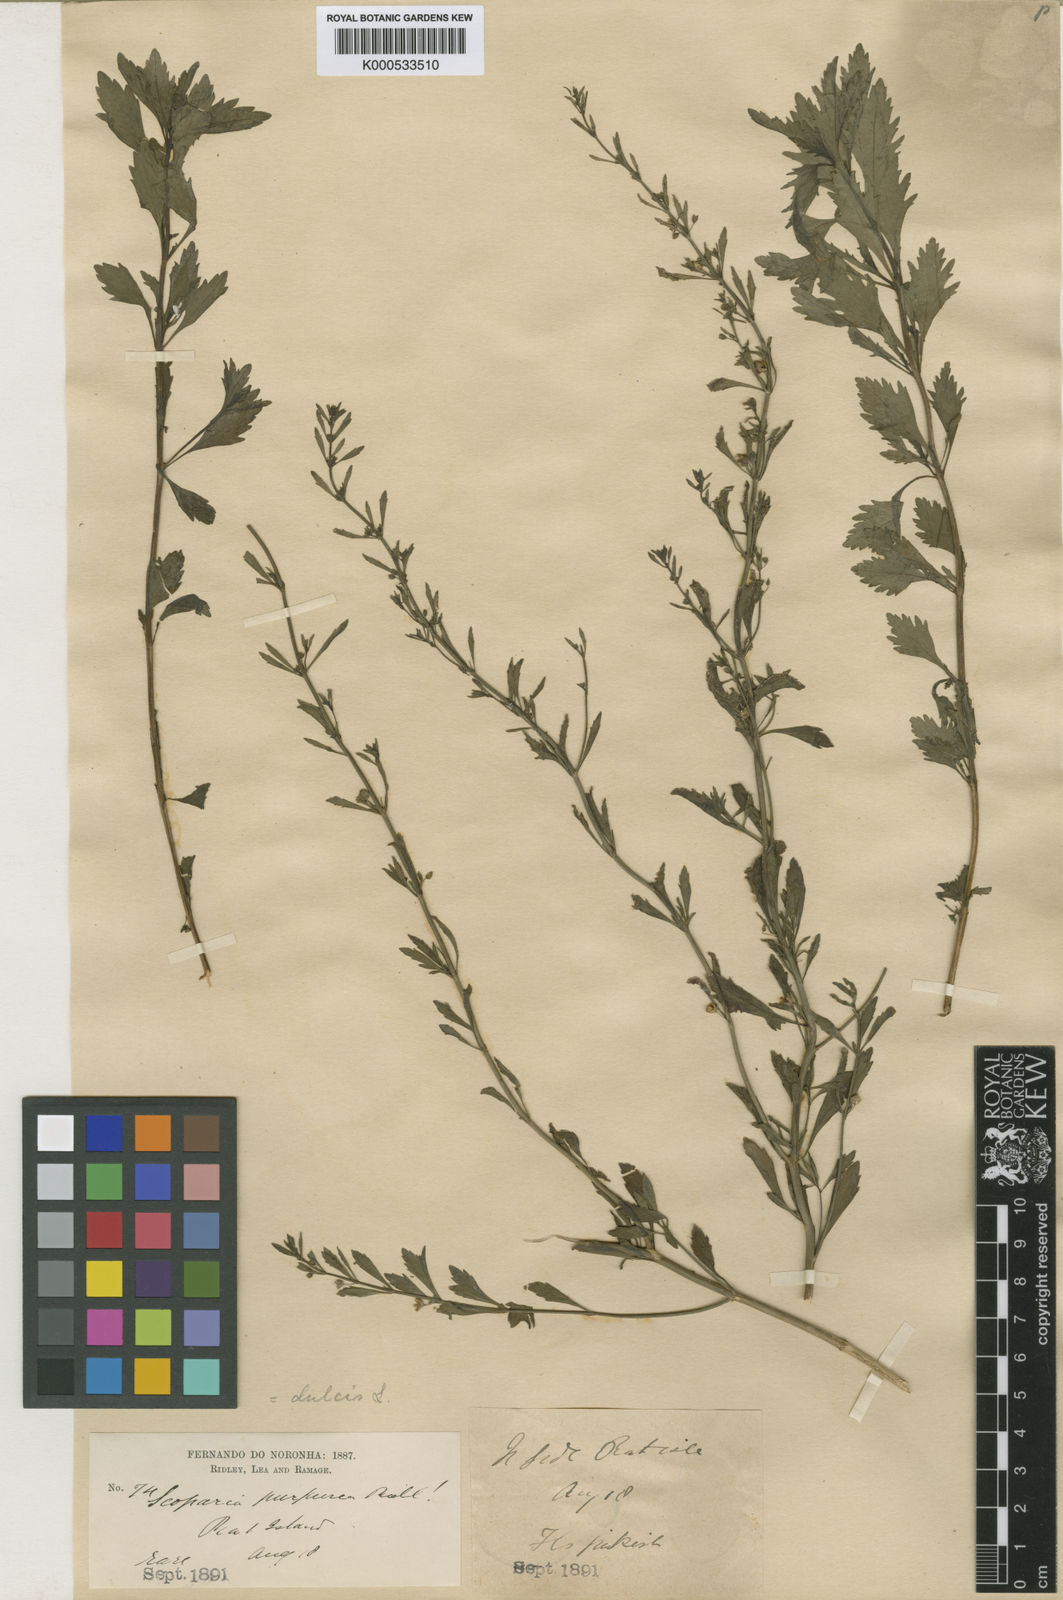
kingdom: Plantae
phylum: Tracheophyta
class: Magnoliopsida
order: Lamiales
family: Plantaginaceae
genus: Scoparia
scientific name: Scoparia dulcis
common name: Scoparia-weed
